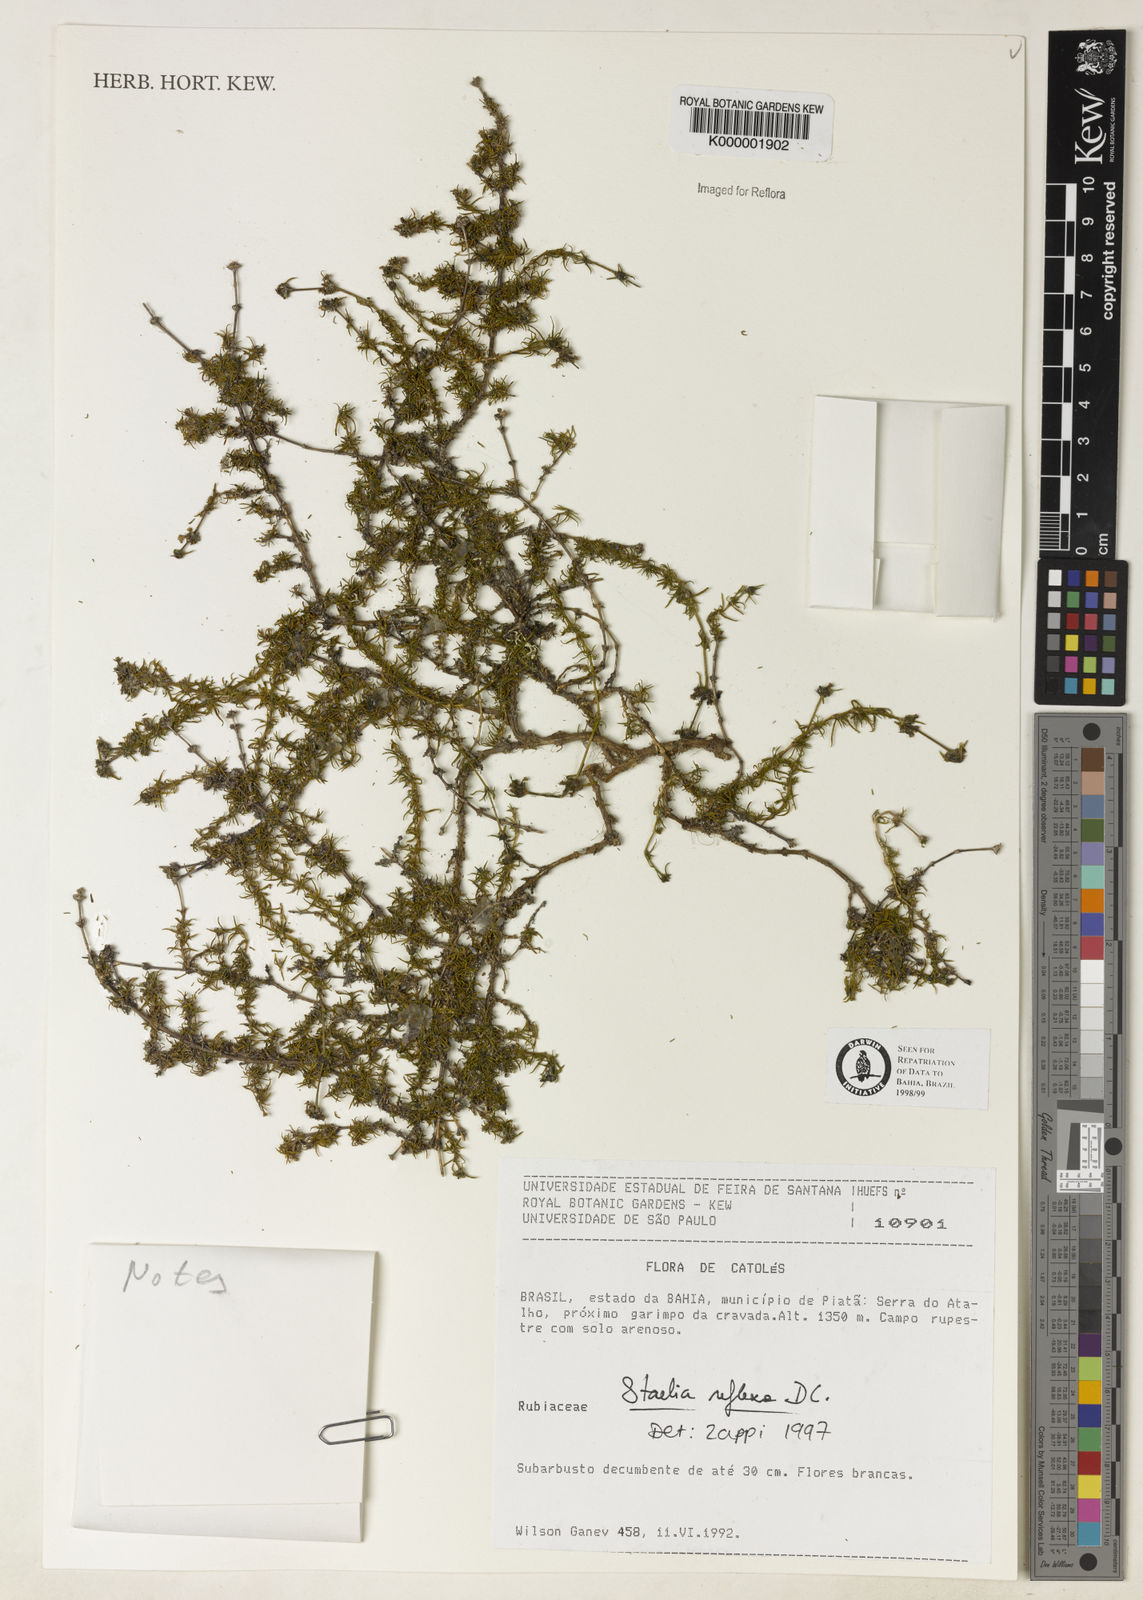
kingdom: Plantae
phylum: Tracheophyta
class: Magnoliopsida
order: Gentianales
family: Rubiaceae
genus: Staelia
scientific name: Staelia reflexa
